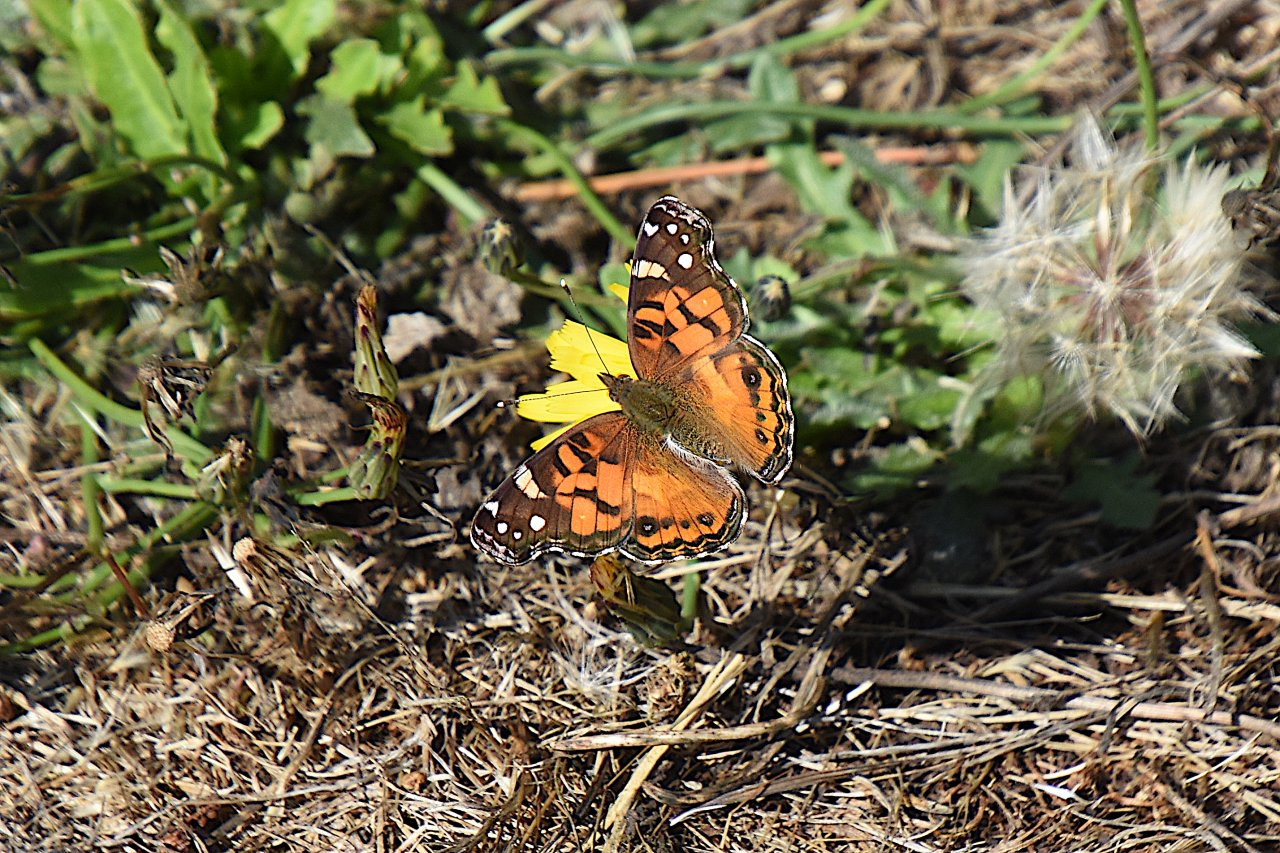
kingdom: Animalia
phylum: Arthropoda
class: Insecta
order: Lepidoptera
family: Nymphalidae
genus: Vanessa
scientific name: Vanessa virginiensis
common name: American Lady
